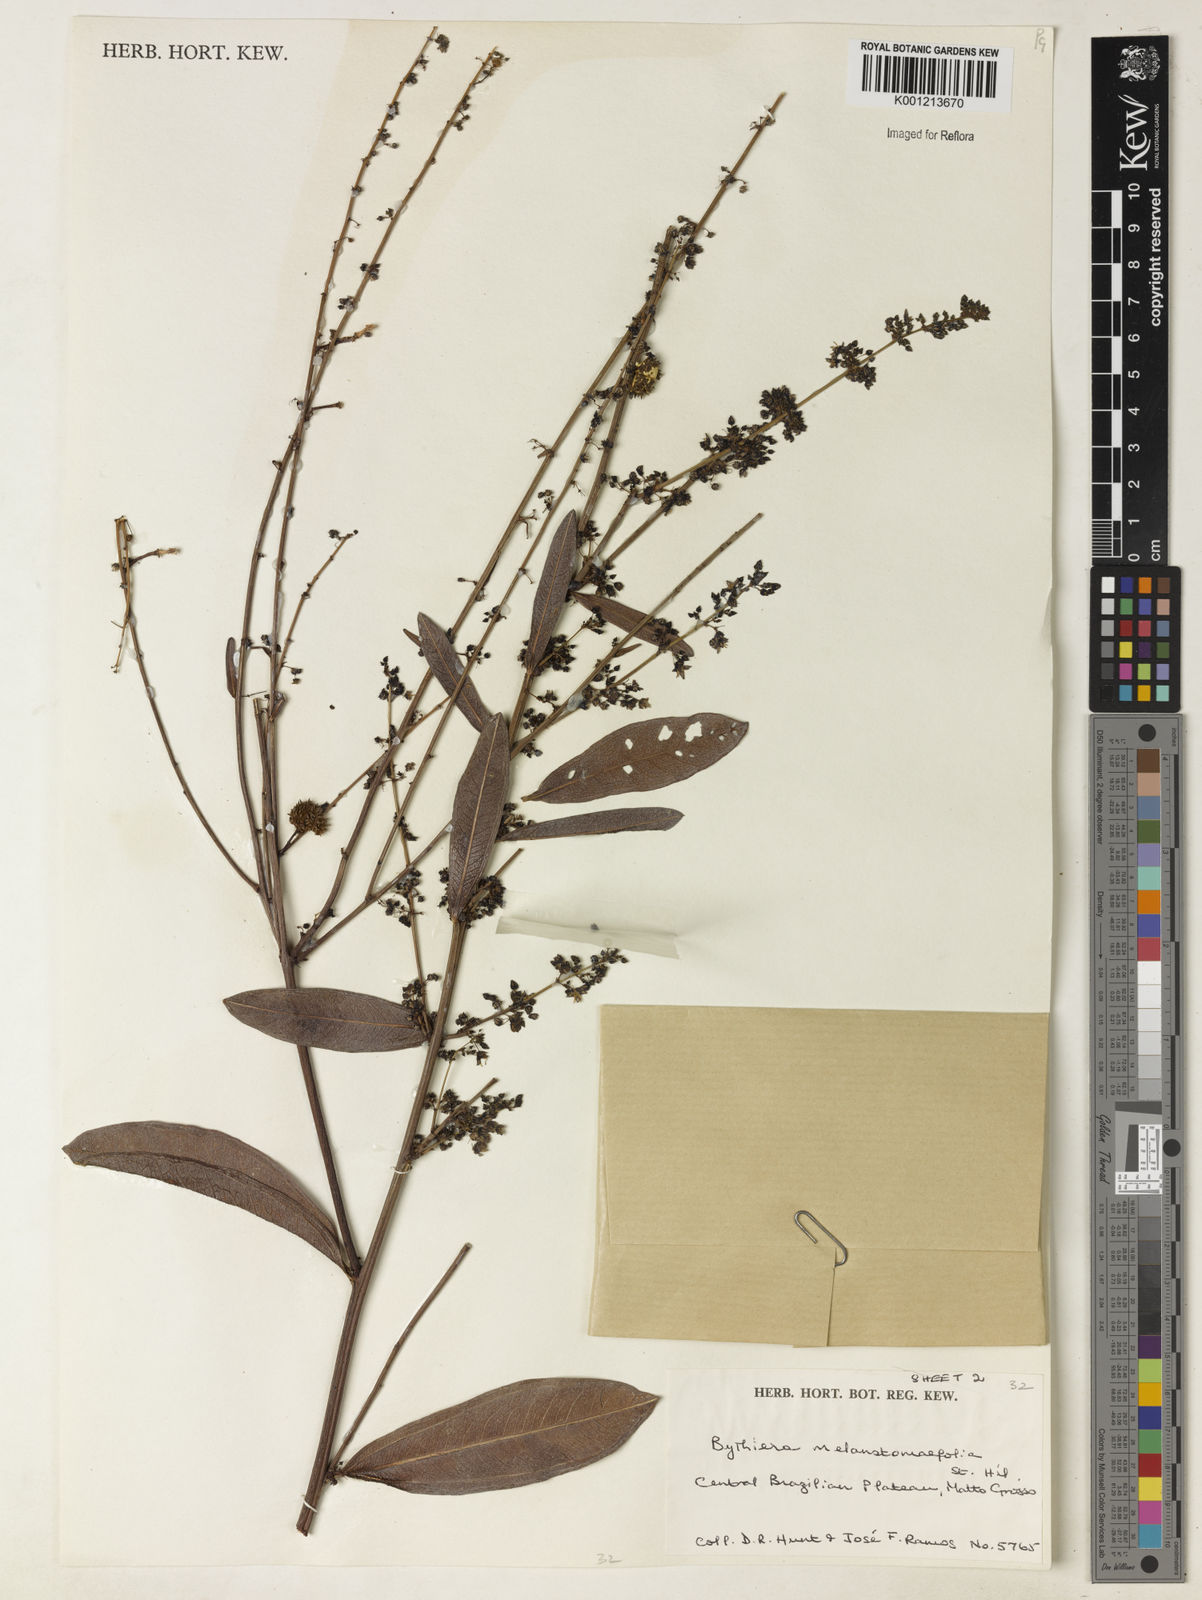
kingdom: Plantae
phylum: Tracheophyta
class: Magnoliopsida
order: Malvales
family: Malvaceae
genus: Byttneria
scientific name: Byttneria melastomifolia
